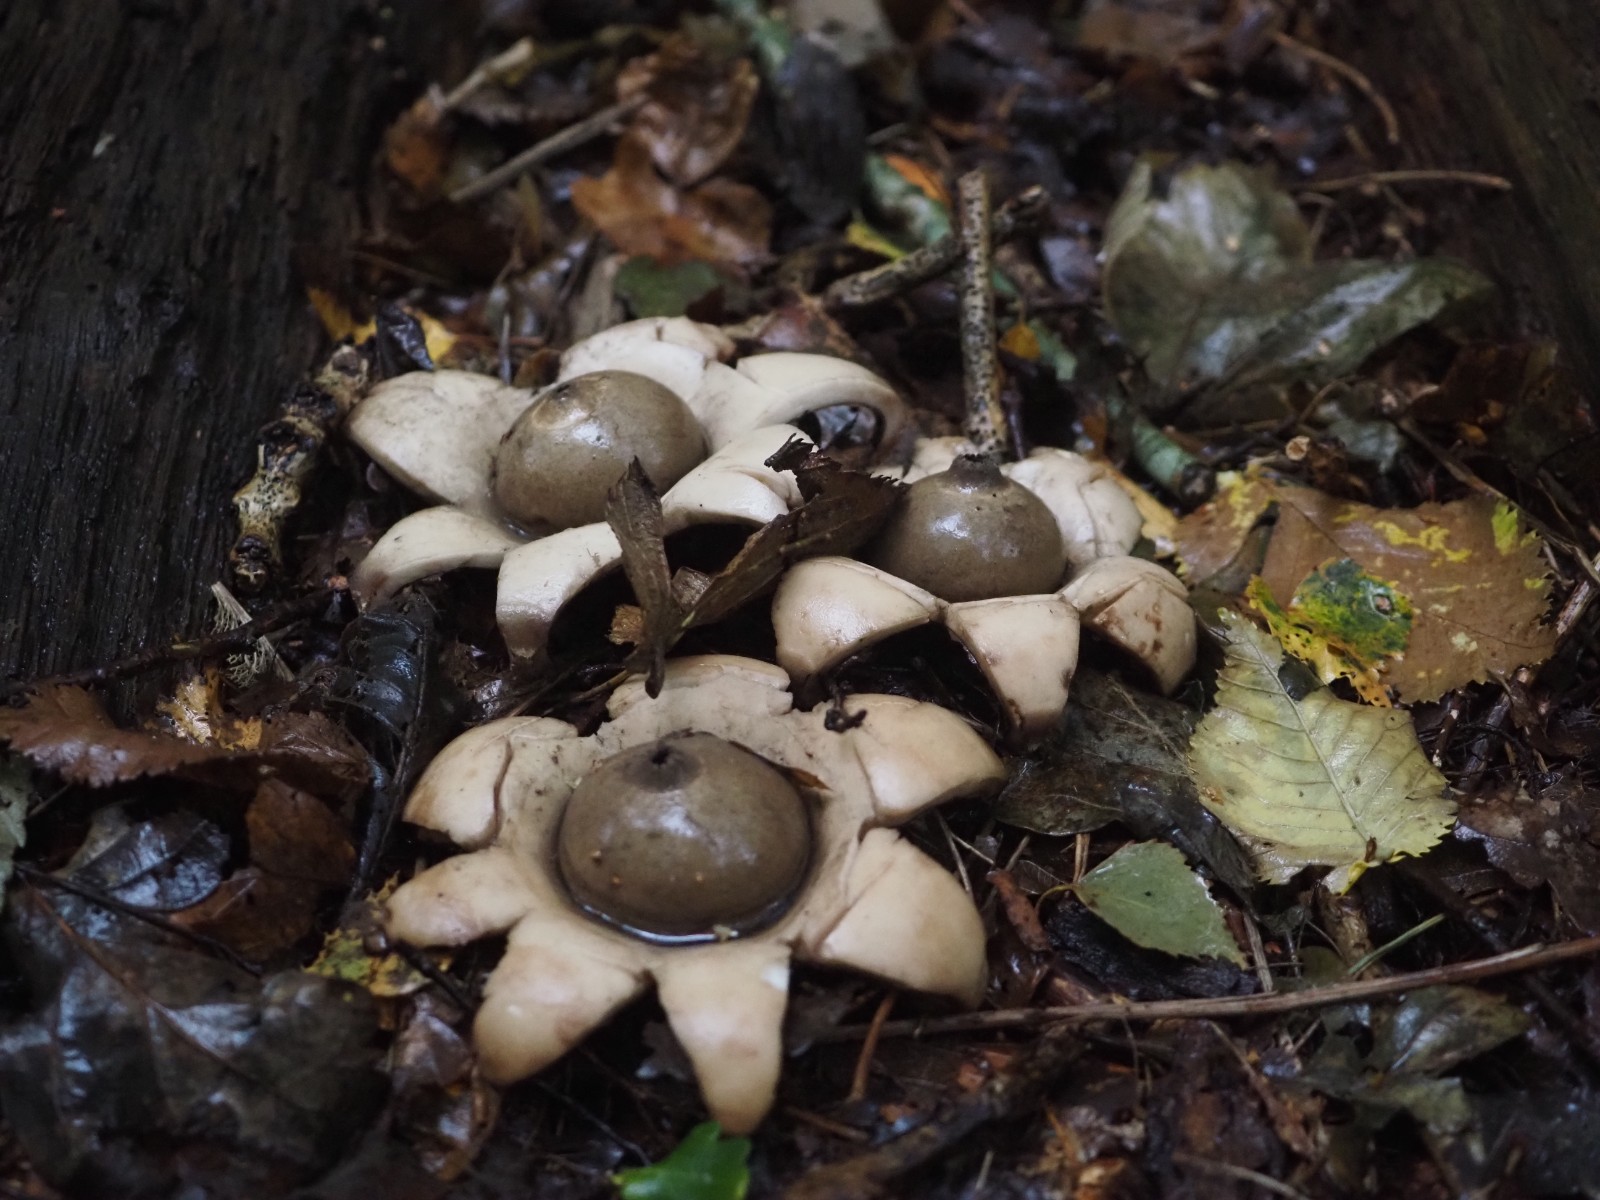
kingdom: Fungi
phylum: Basidiomycota
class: Agaricomycetes
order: Geastrales
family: Geastraceae
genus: Geastrum
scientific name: Geastrum fimbriatum
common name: frynset stjernebold
